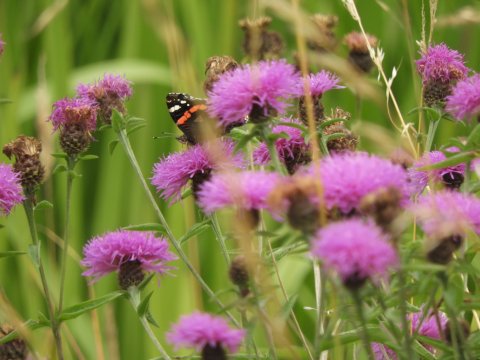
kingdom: Animalia
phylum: Arthropoda
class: Insecta
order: Lepidoptera
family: Nymphalidae
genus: Vanessa
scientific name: Vanessa atalanta
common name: Red Admiral
